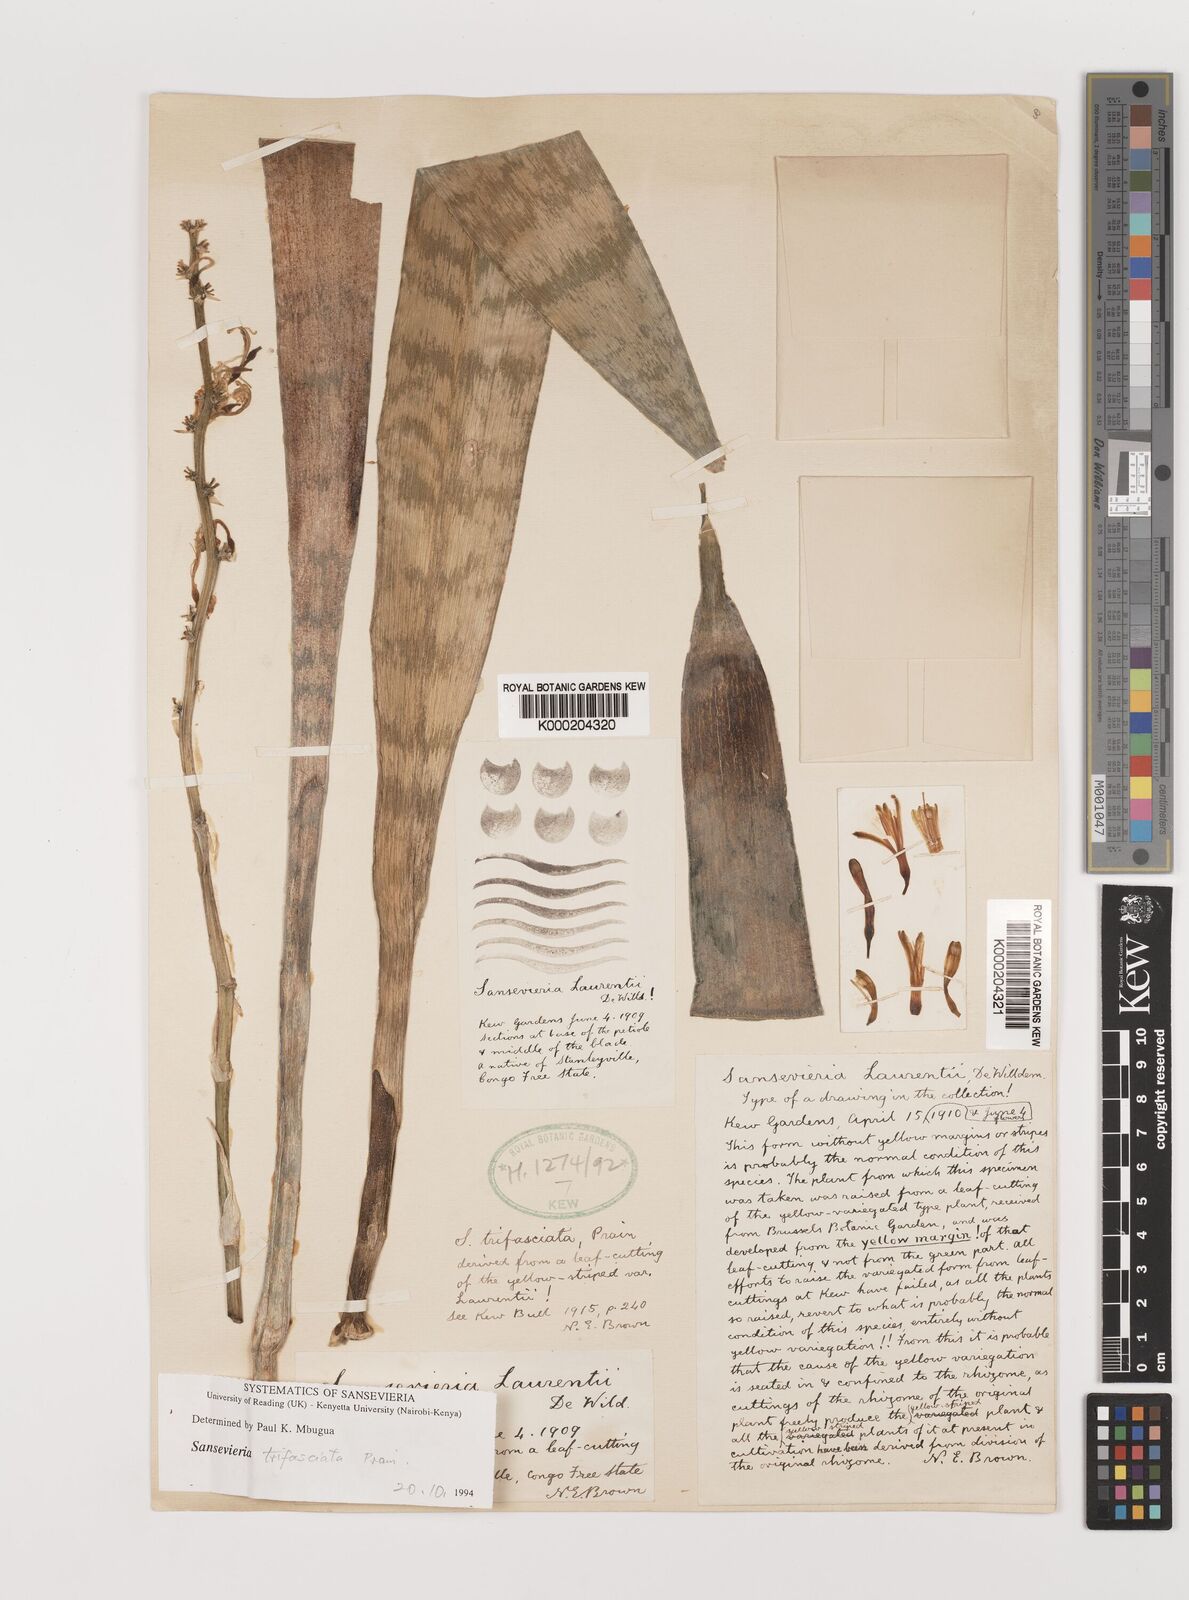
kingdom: Plantae
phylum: Tracheophyta
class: Liliopsida
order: Asparagales
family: Asparagaceae
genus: Dracaena
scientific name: Dracaena trifasciata
